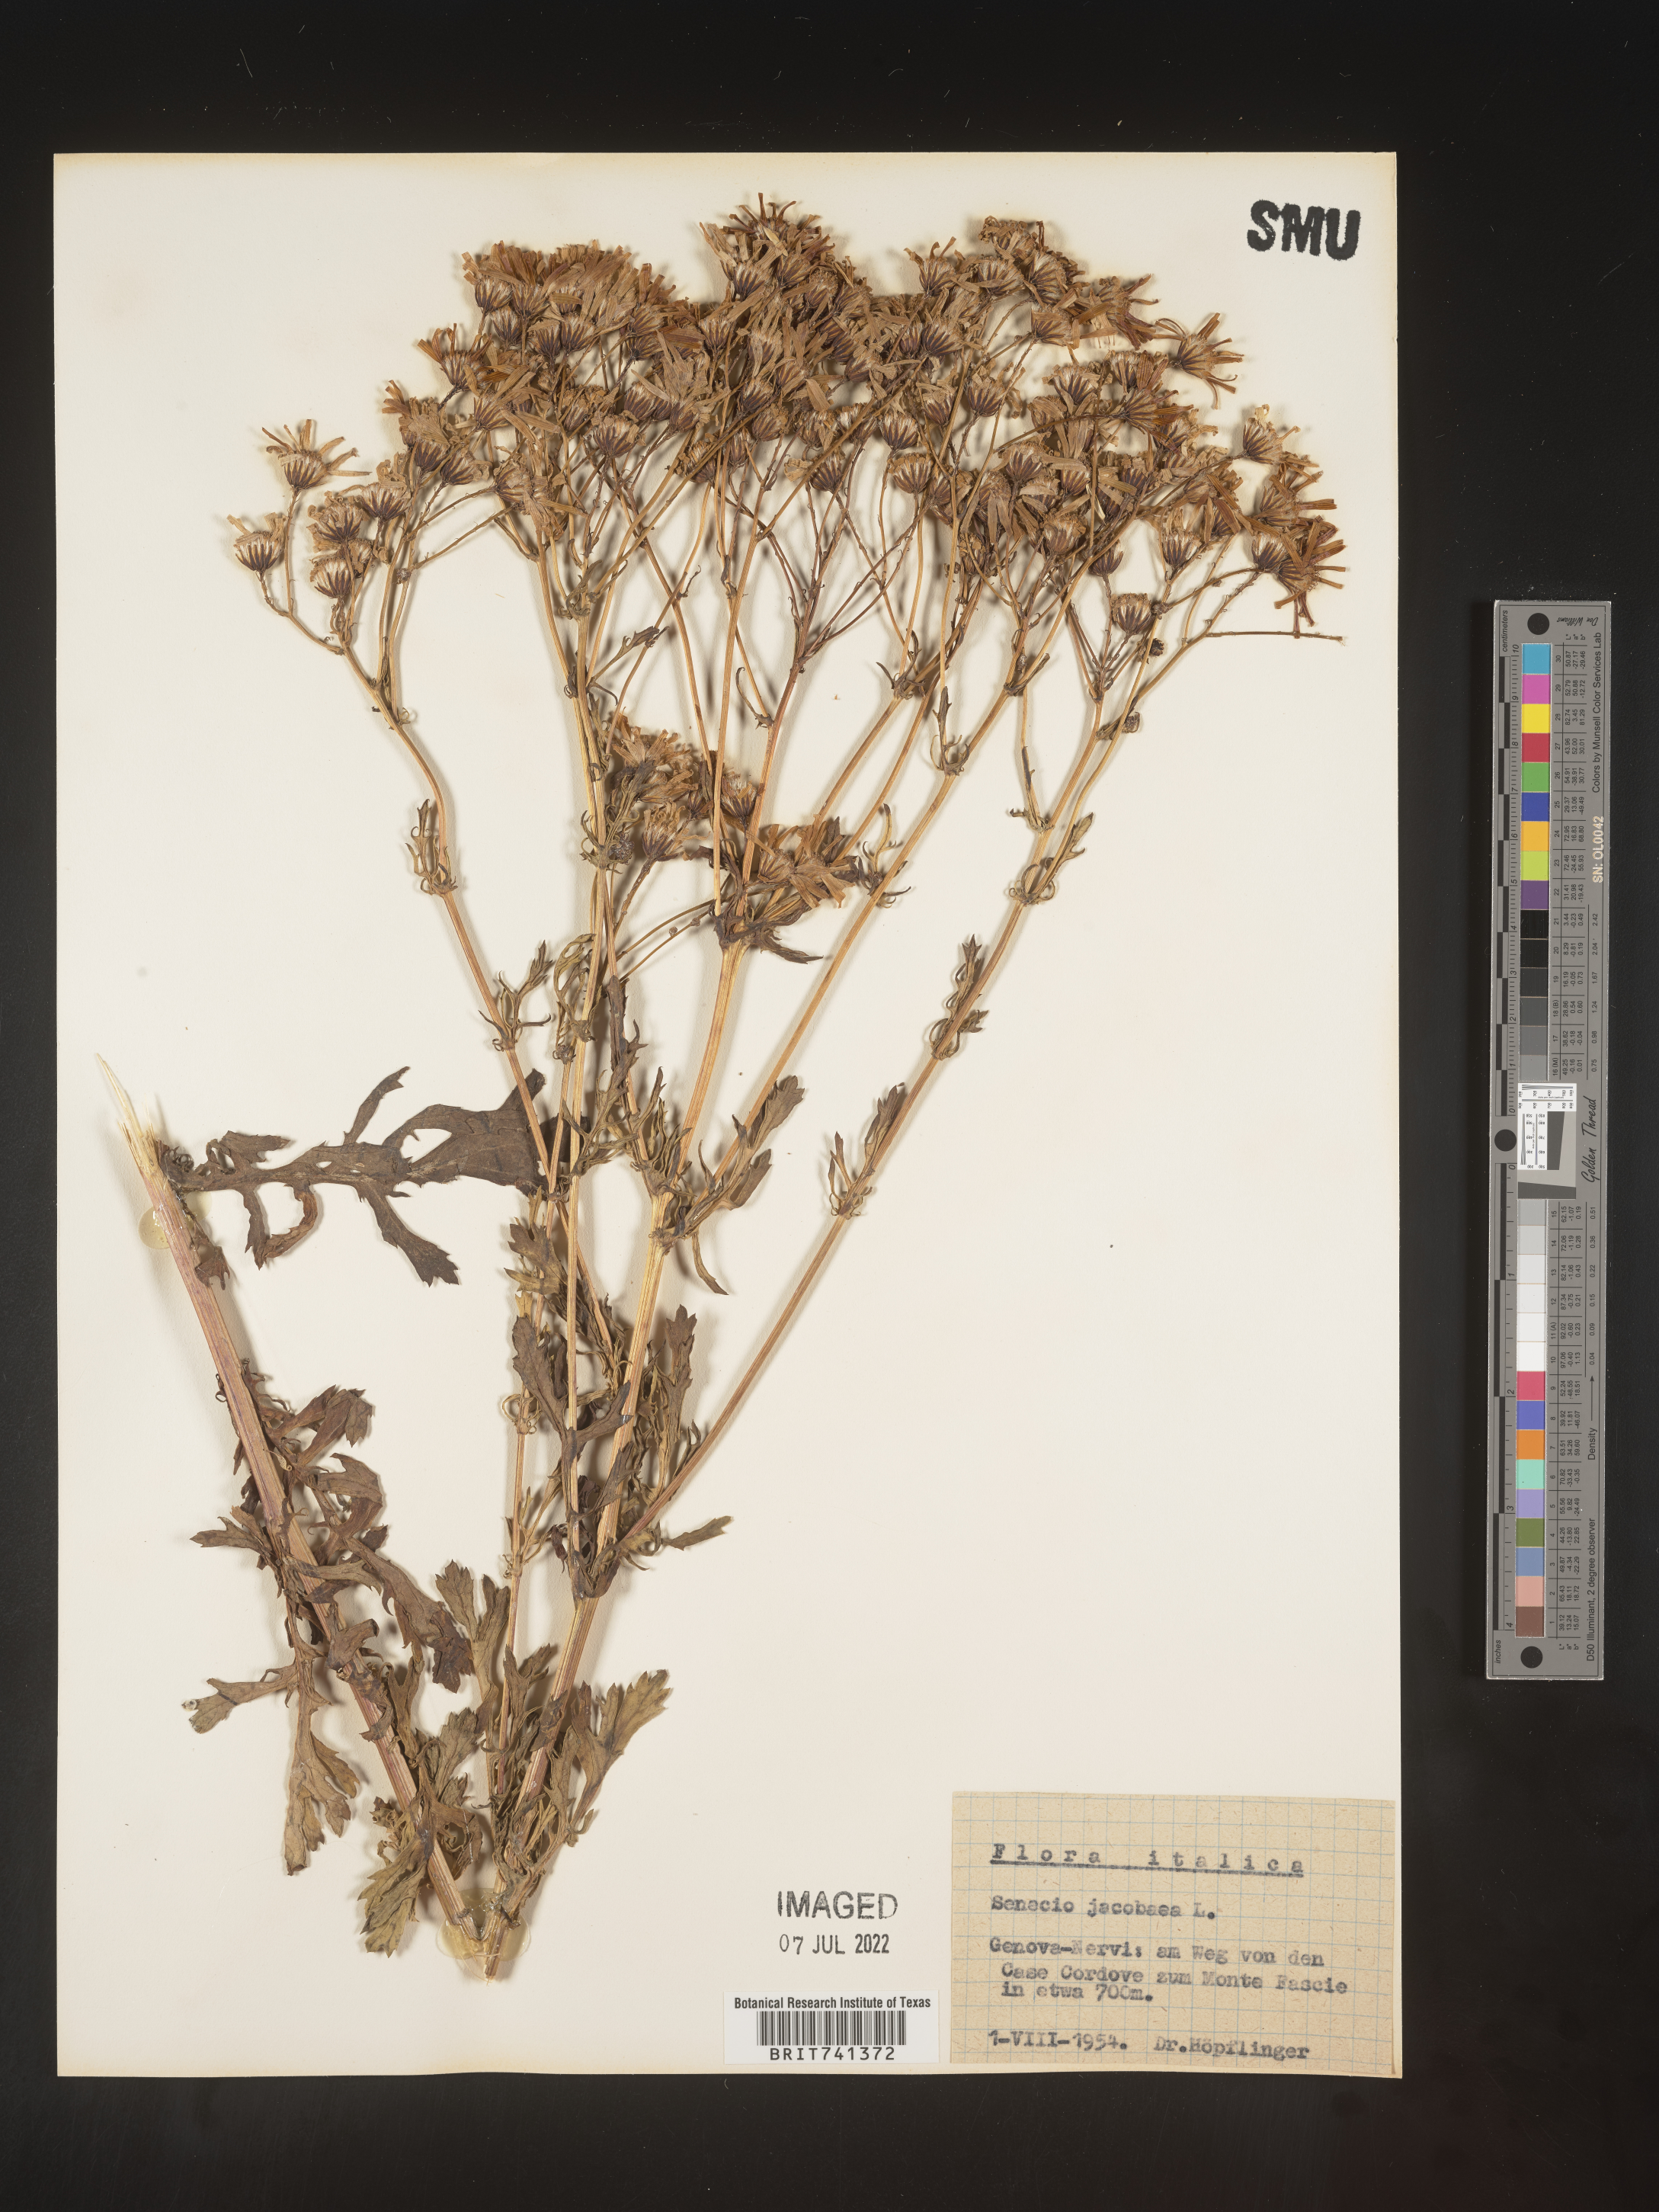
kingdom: Plantae
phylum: Tracheophyta
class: Magnoliopsida
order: Asterales
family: Asteraceae
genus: Senecio
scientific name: Senecio
